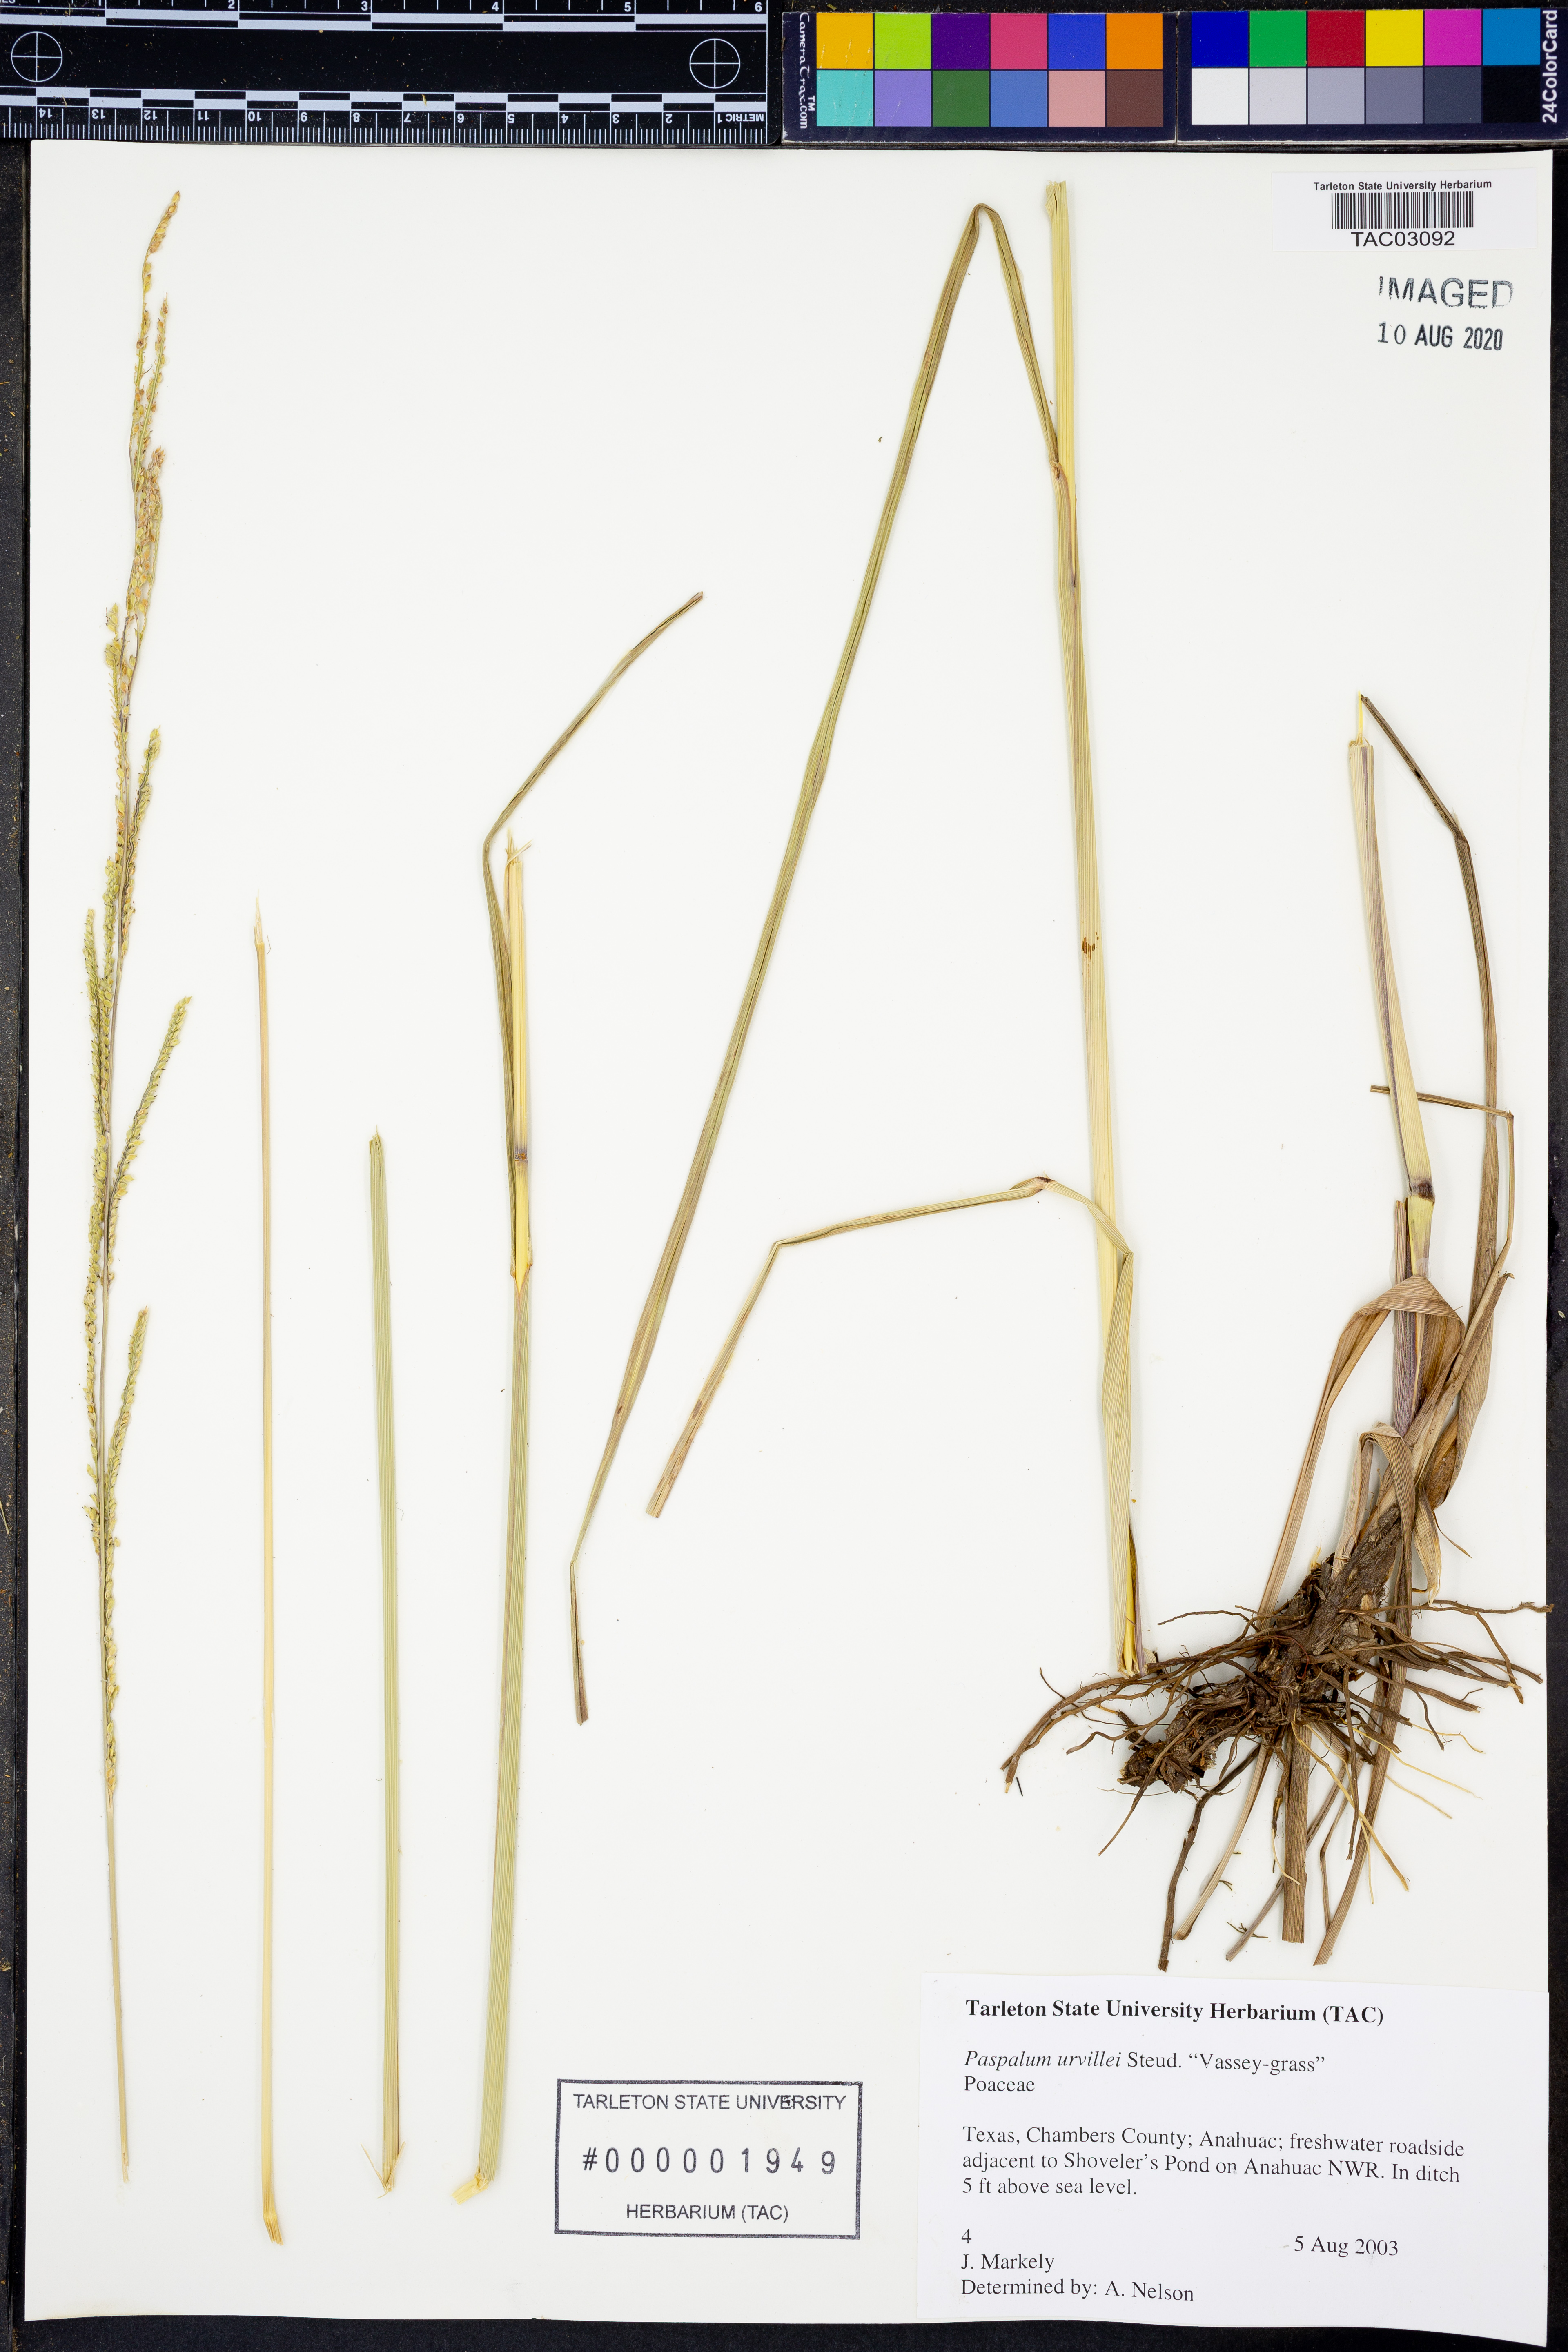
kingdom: Plantae
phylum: Tracheophyta
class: Liliopsida
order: Poales
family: Poaceae
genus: Paspalum
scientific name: Paspalum urvillei
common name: Vasey's grass
